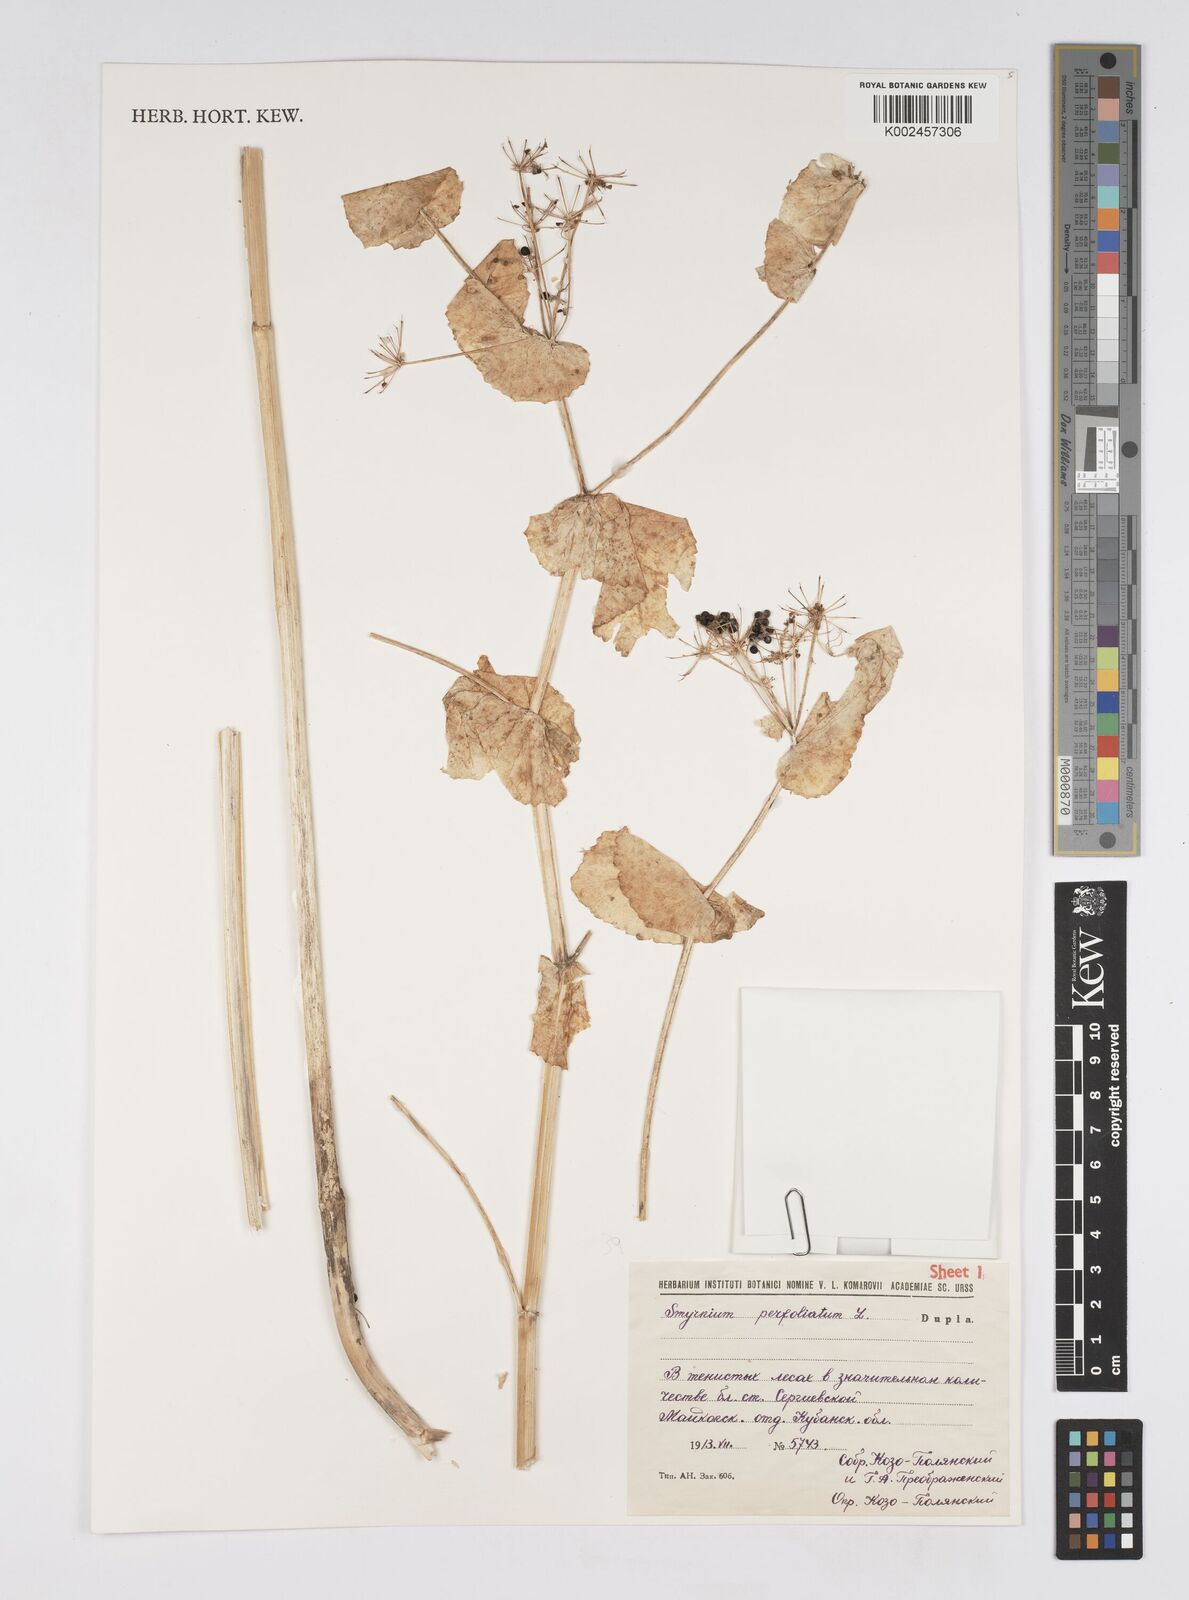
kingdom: Plantae
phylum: Tracheophyta
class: Magnoliopsida
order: Apiales
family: Apiaceae
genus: Smyrnium
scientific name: Smyrnium perfoliatum
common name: Perfoliate alexanders
